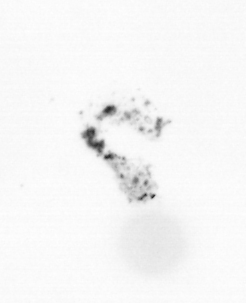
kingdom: Chromista
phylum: Ochrophyta
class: Bacillariophyceae
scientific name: Bacillariophyceae
